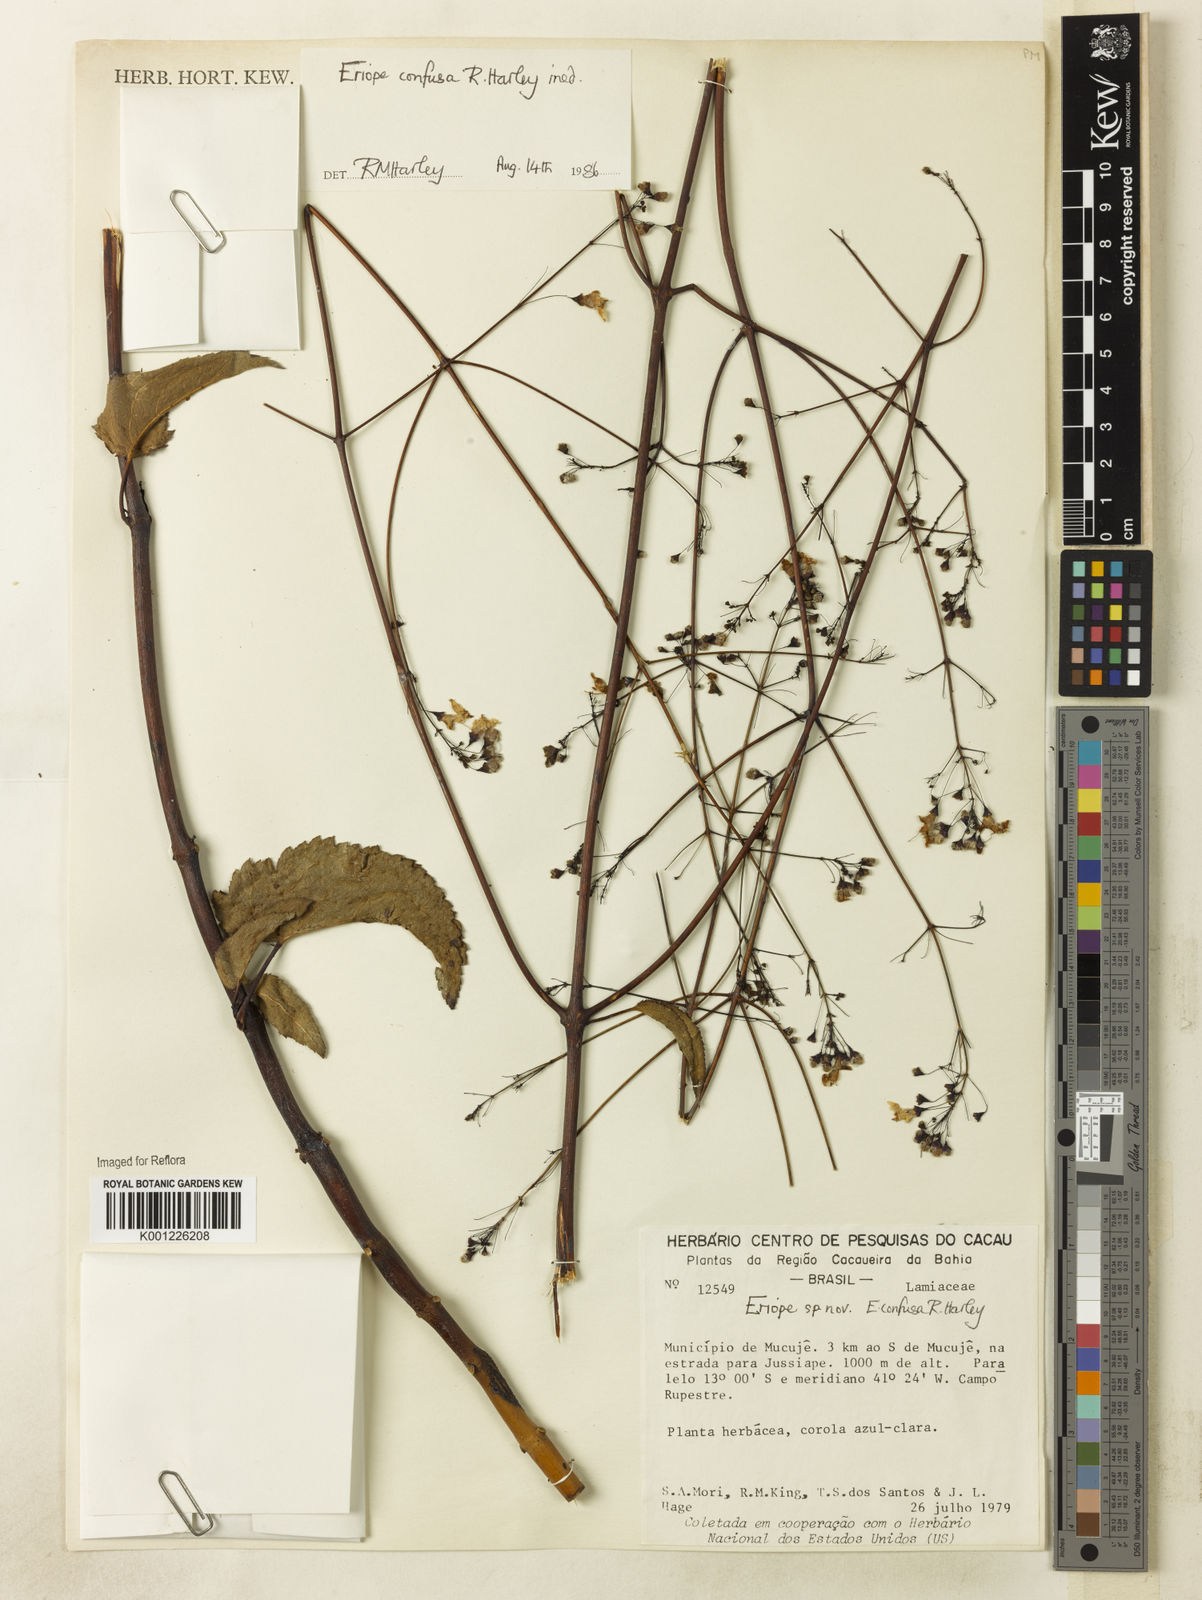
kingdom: Plantae
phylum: Tracheophyta
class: Magnoliopsida
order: Lamiales
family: Lamiaceae
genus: Eriope
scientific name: Eriope confusa
